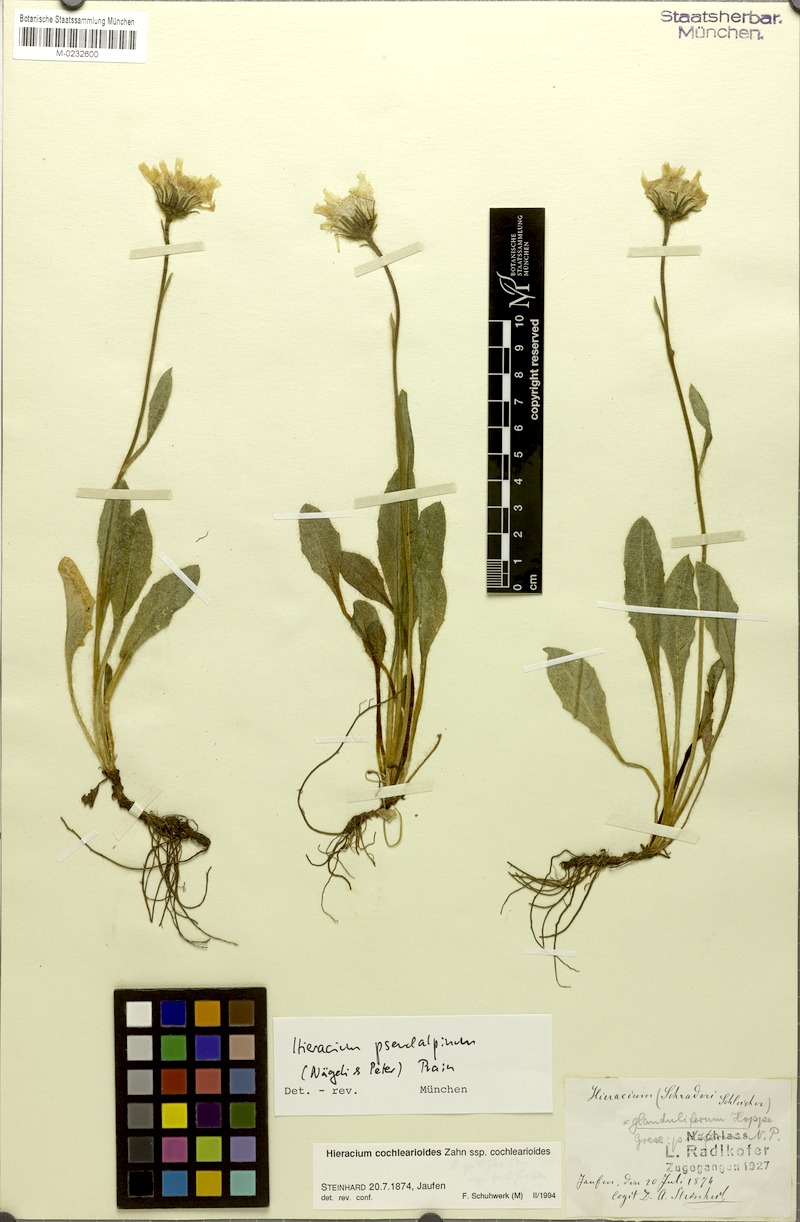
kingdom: Plantae
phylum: Tracheophyta
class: Magnoliopsida
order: Asterales
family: Asteraceae
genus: Hieracium
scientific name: Hieracium pseudalpinum
